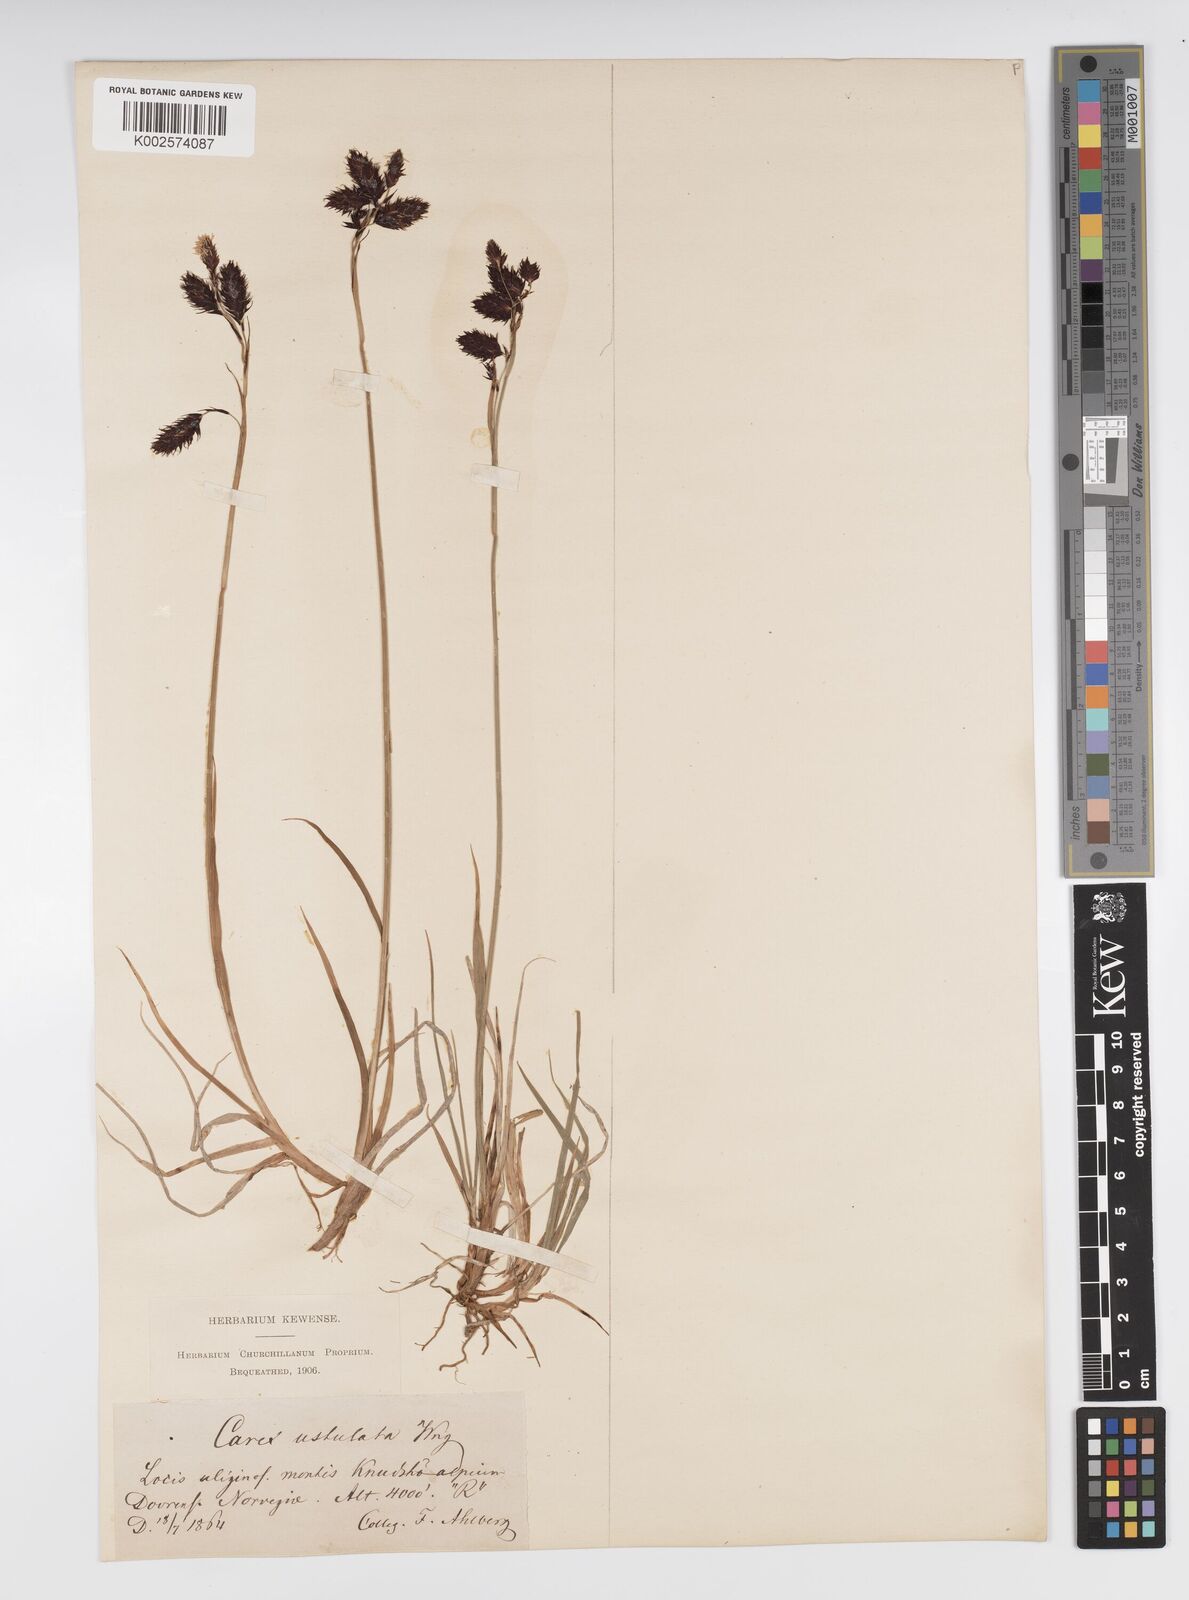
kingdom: Plantae
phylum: Tracheophyta
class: Liliopsida
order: Poales
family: Cyperaceae
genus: Carex
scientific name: Carex atrofusca
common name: Scorched alpine-sedge
